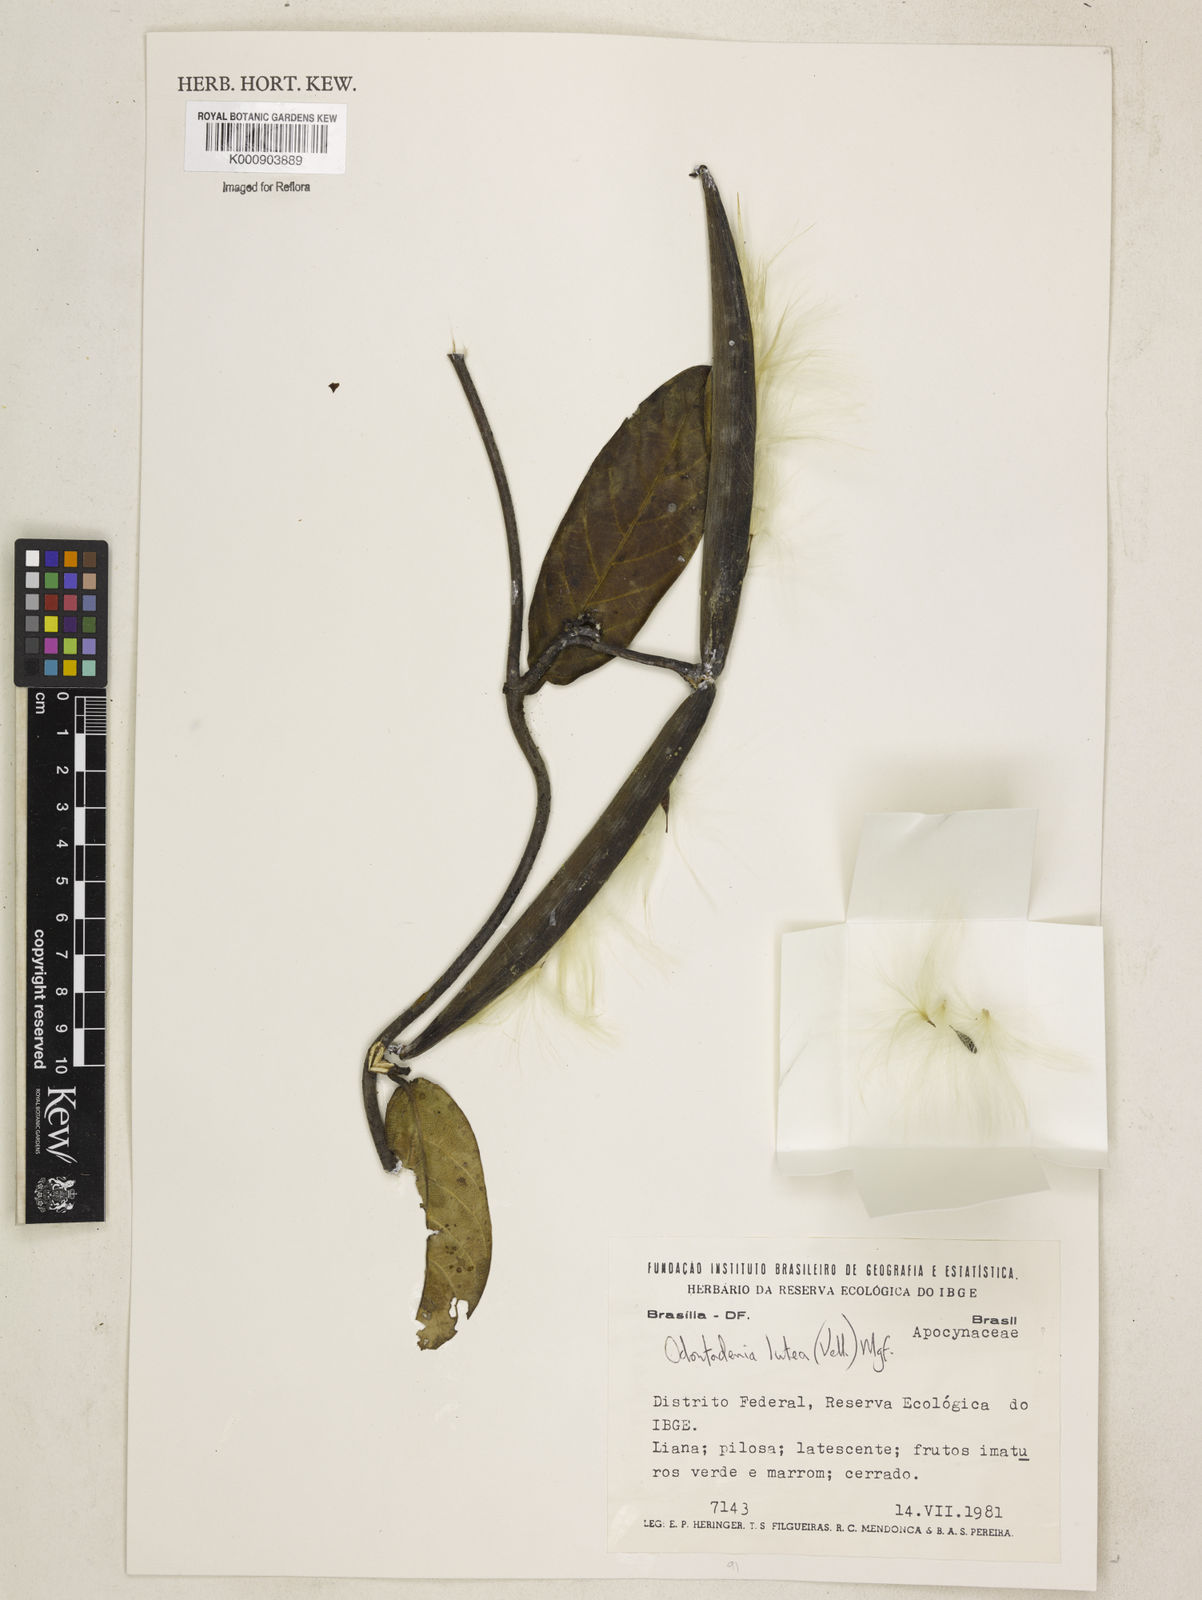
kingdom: Plantae
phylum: Tracheophyta
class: Magnoliopsida
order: Gentianales
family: Apocynaceae
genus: Odontadenia
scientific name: Odontadenia lutea
